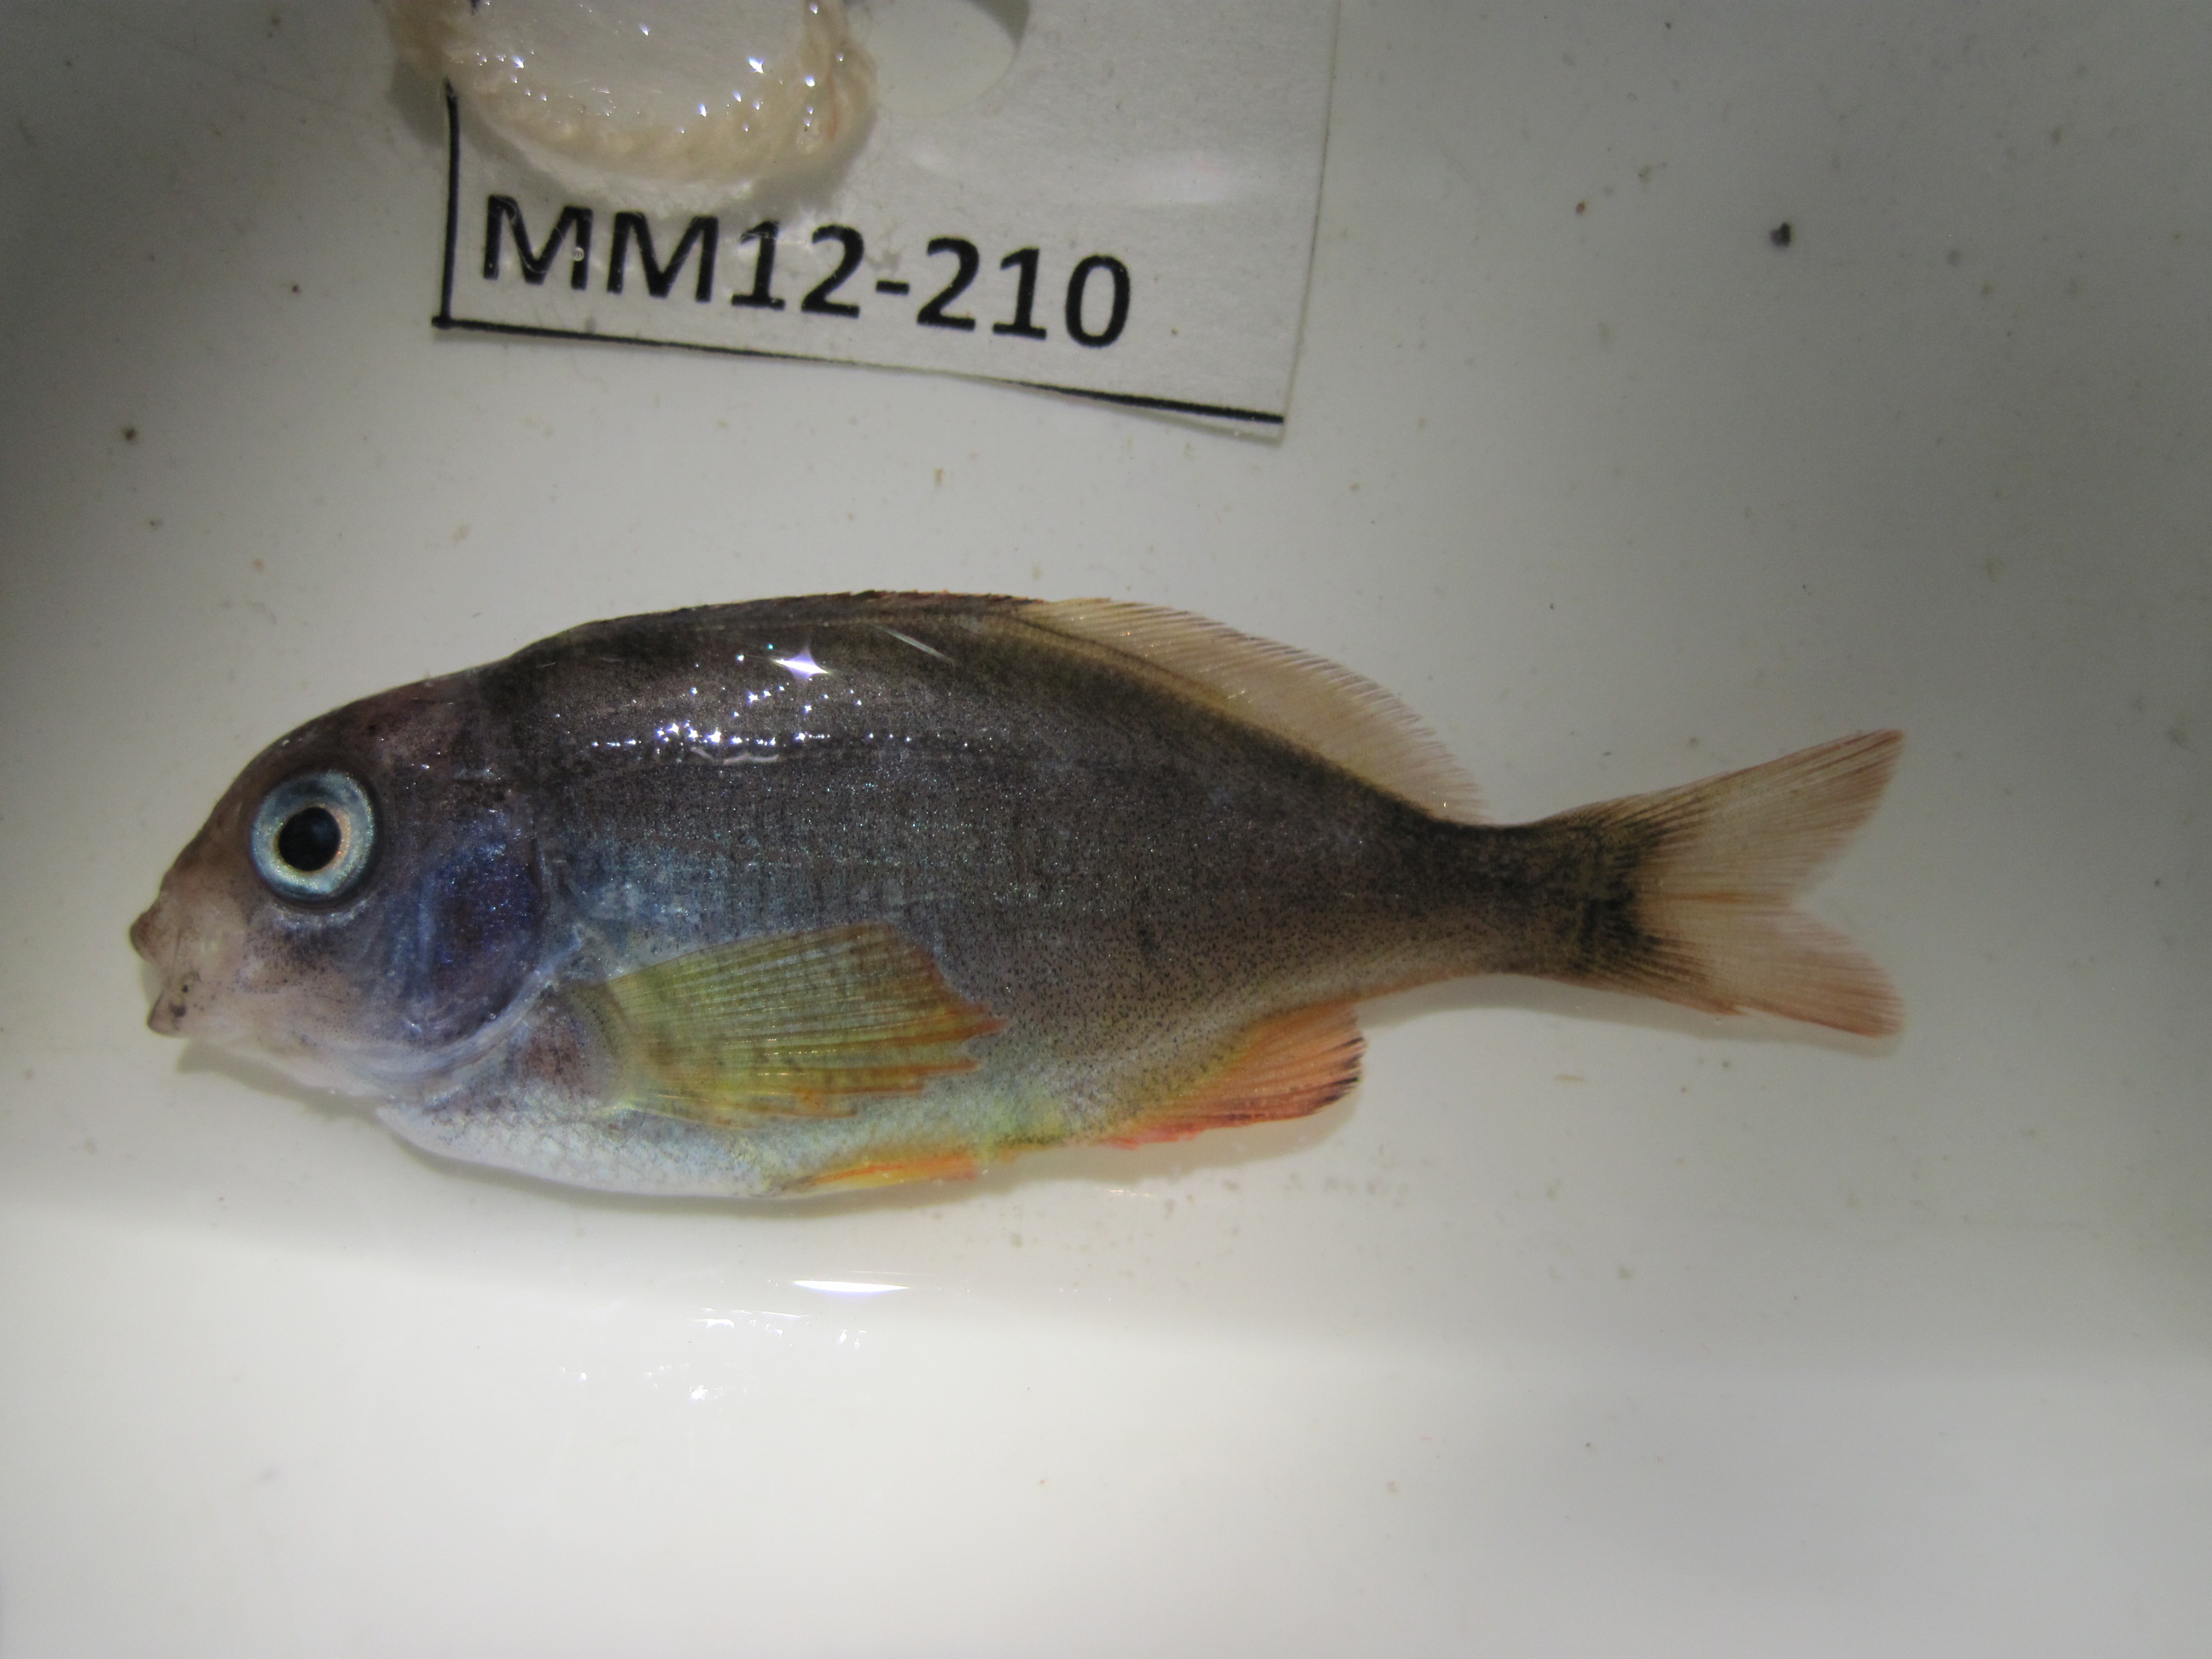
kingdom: Animalia
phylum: Chordata
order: Perciformes
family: Cheilodactylidae
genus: Cheilodactylus
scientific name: Cheilodactylus
